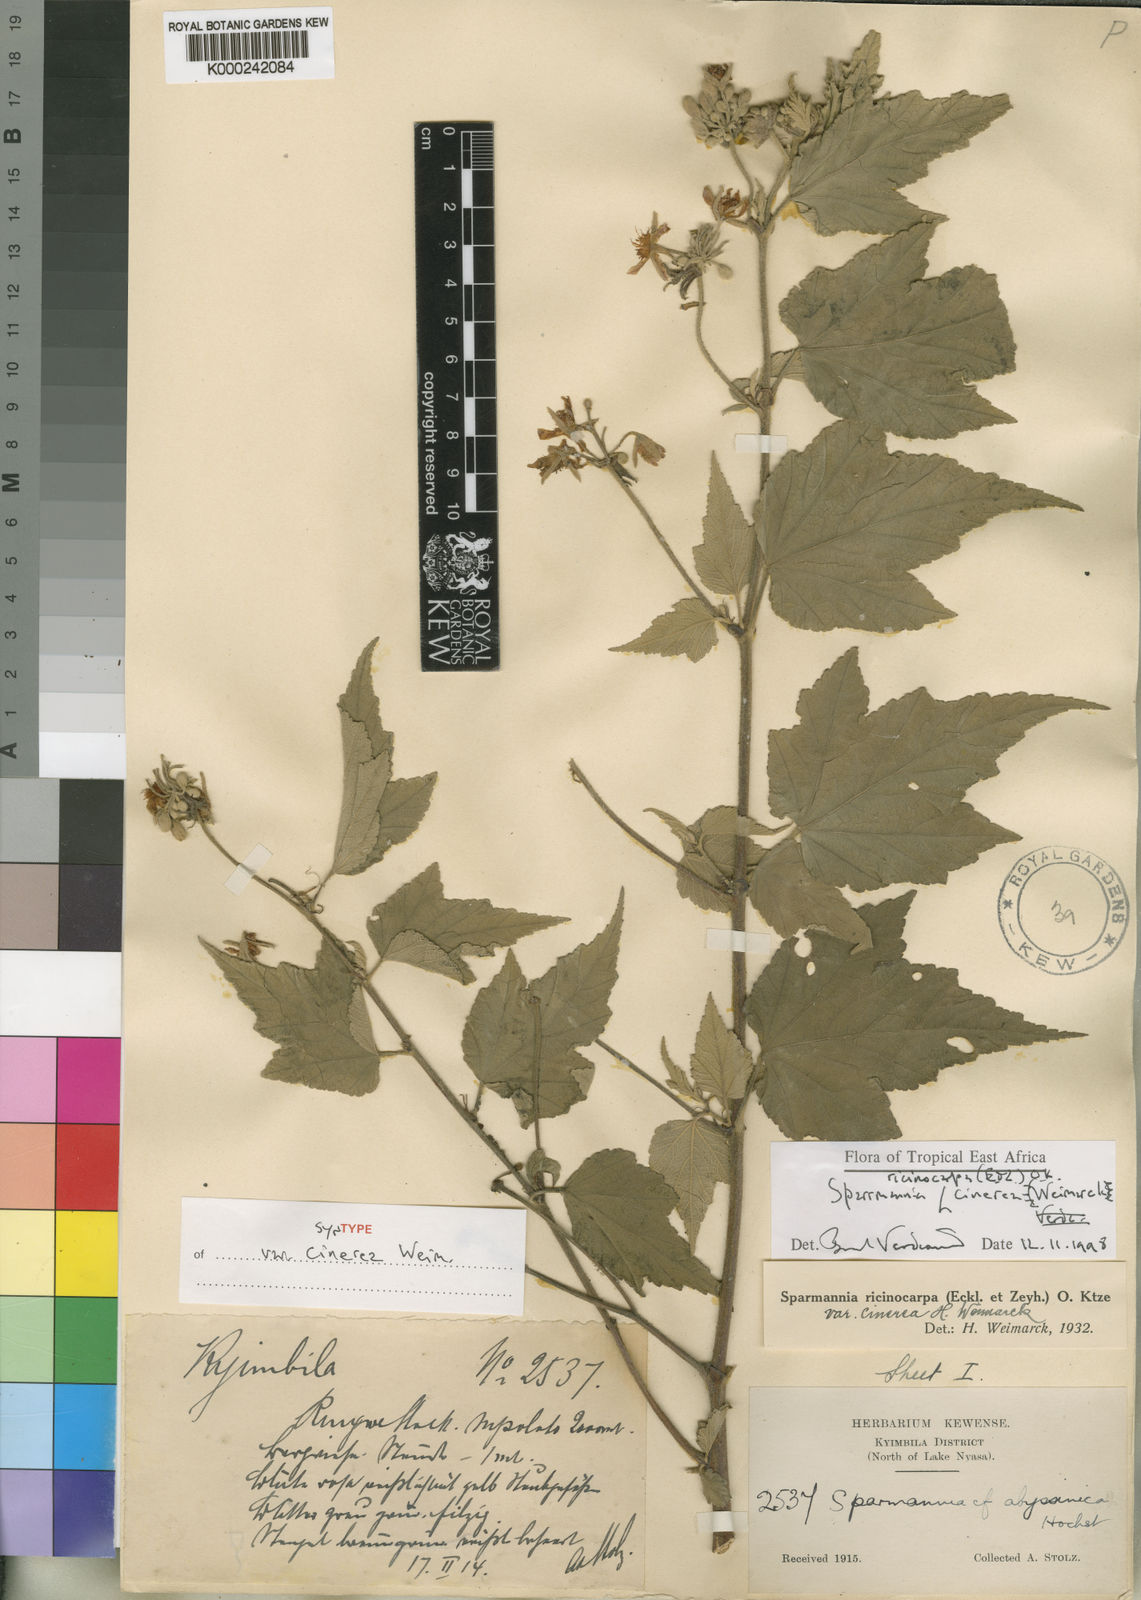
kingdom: Plantae
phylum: Tracheophyta
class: Magnoliopsida
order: Malvales
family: Malvaceae
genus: Sparrmannia
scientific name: Sparrmannia ricinocarpa
